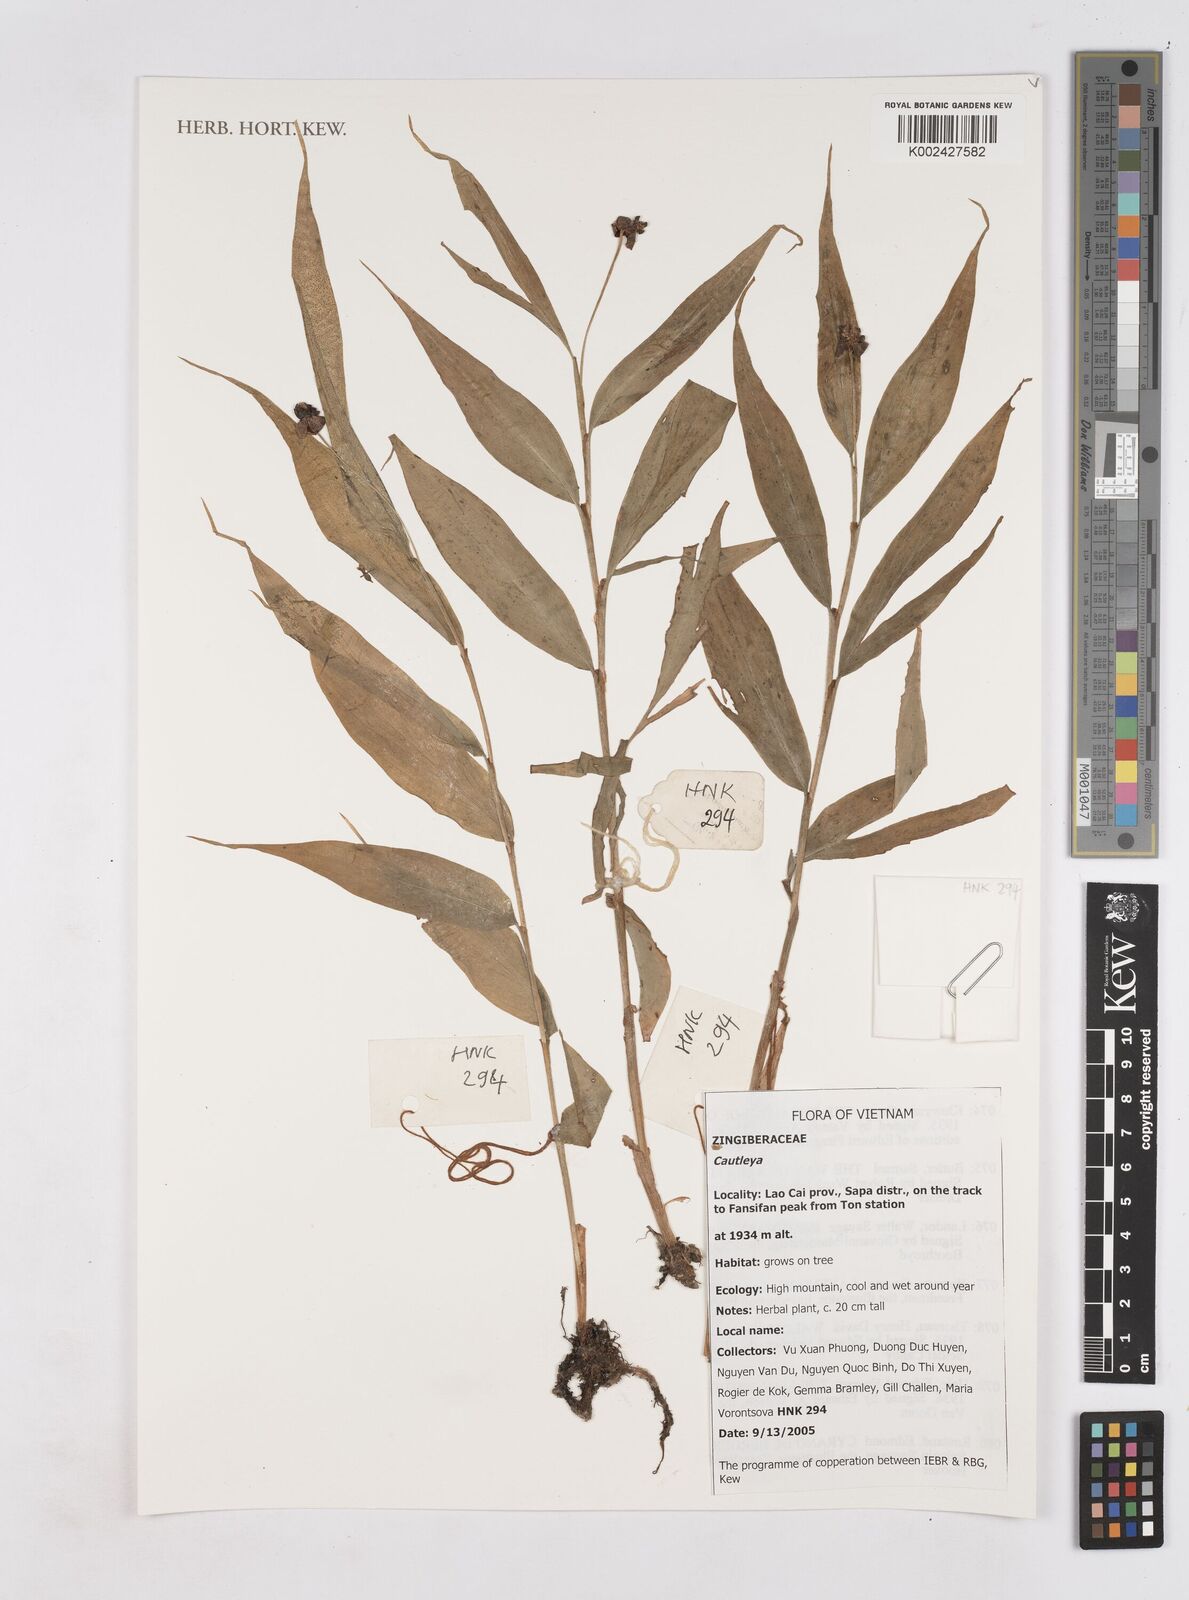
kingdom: Plantae
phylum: Tracheophyta
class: Liliopsida
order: Zingiberales
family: Zingiberaceae
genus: Cautleya
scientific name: Cautleya
